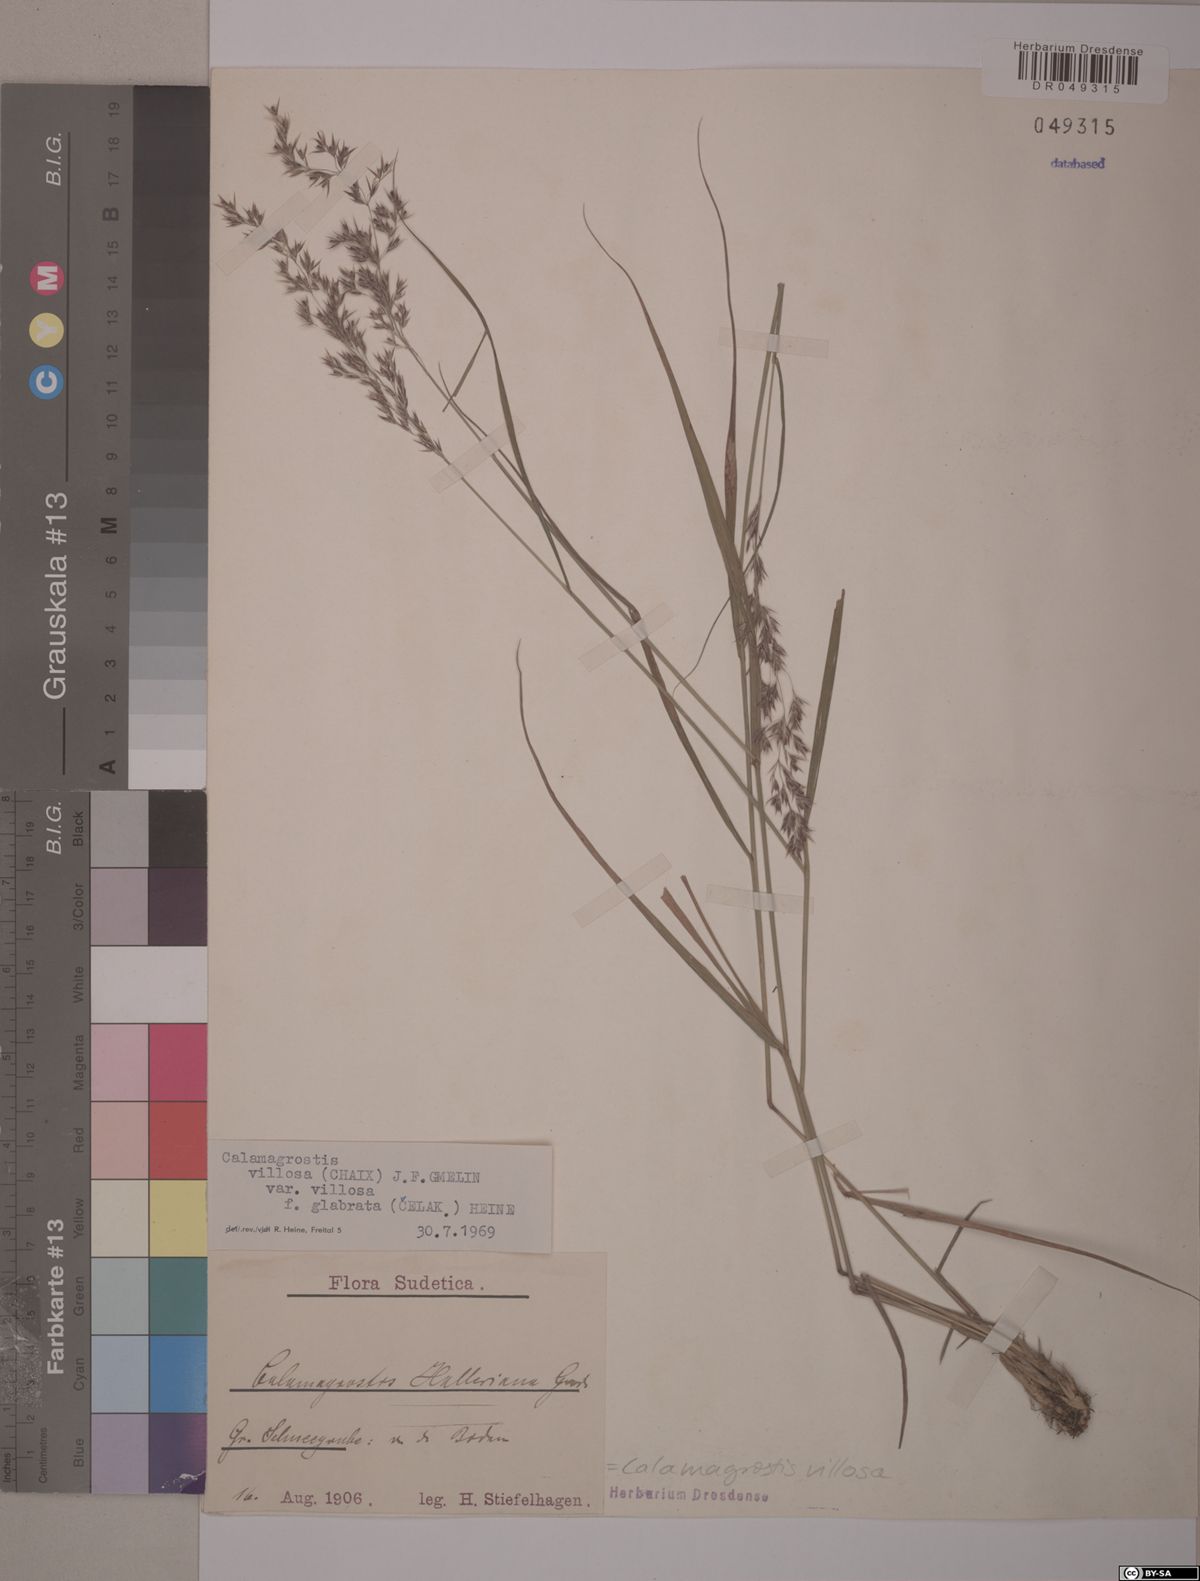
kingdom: Plantae
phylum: Tracheophyta
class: Liliopsida
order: Poales
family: Poaceae
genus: Calamagrostis
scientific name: Calamagrostis villosa
